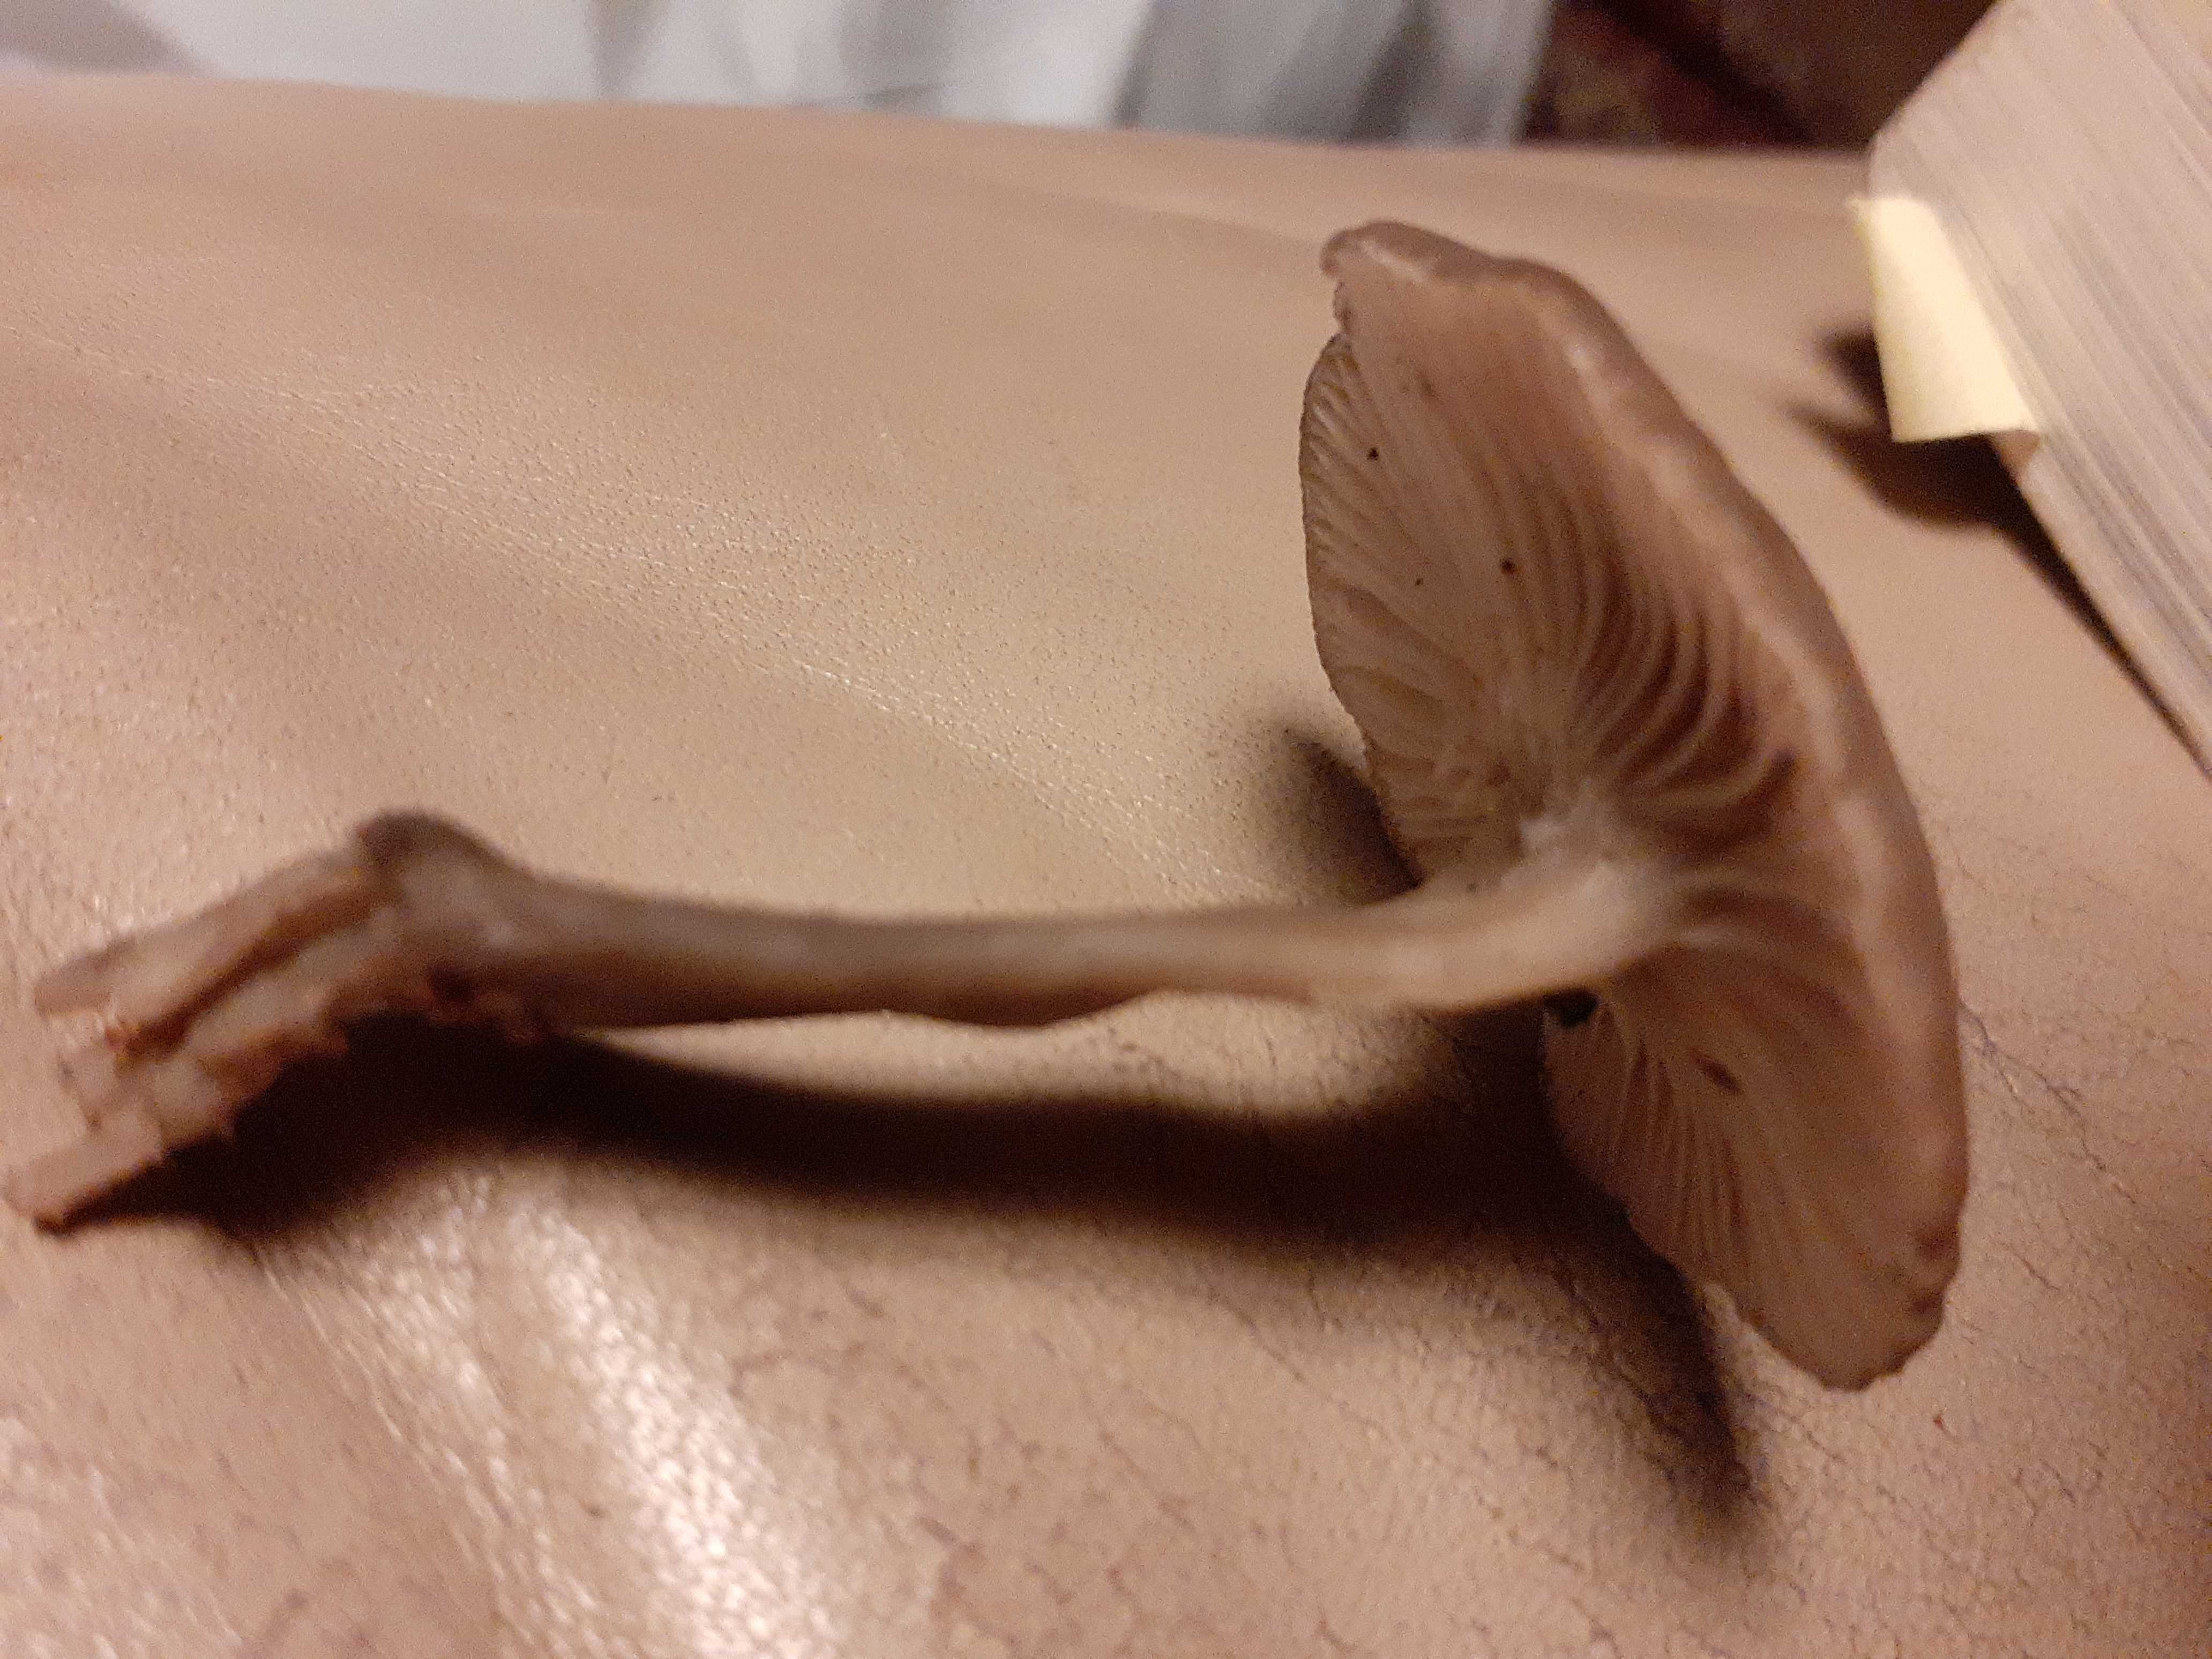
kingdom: Fungi
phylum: Basidiomycota
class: Agaricomycetes
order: Agaricales
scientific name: Agaricales
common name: champignonordenen
